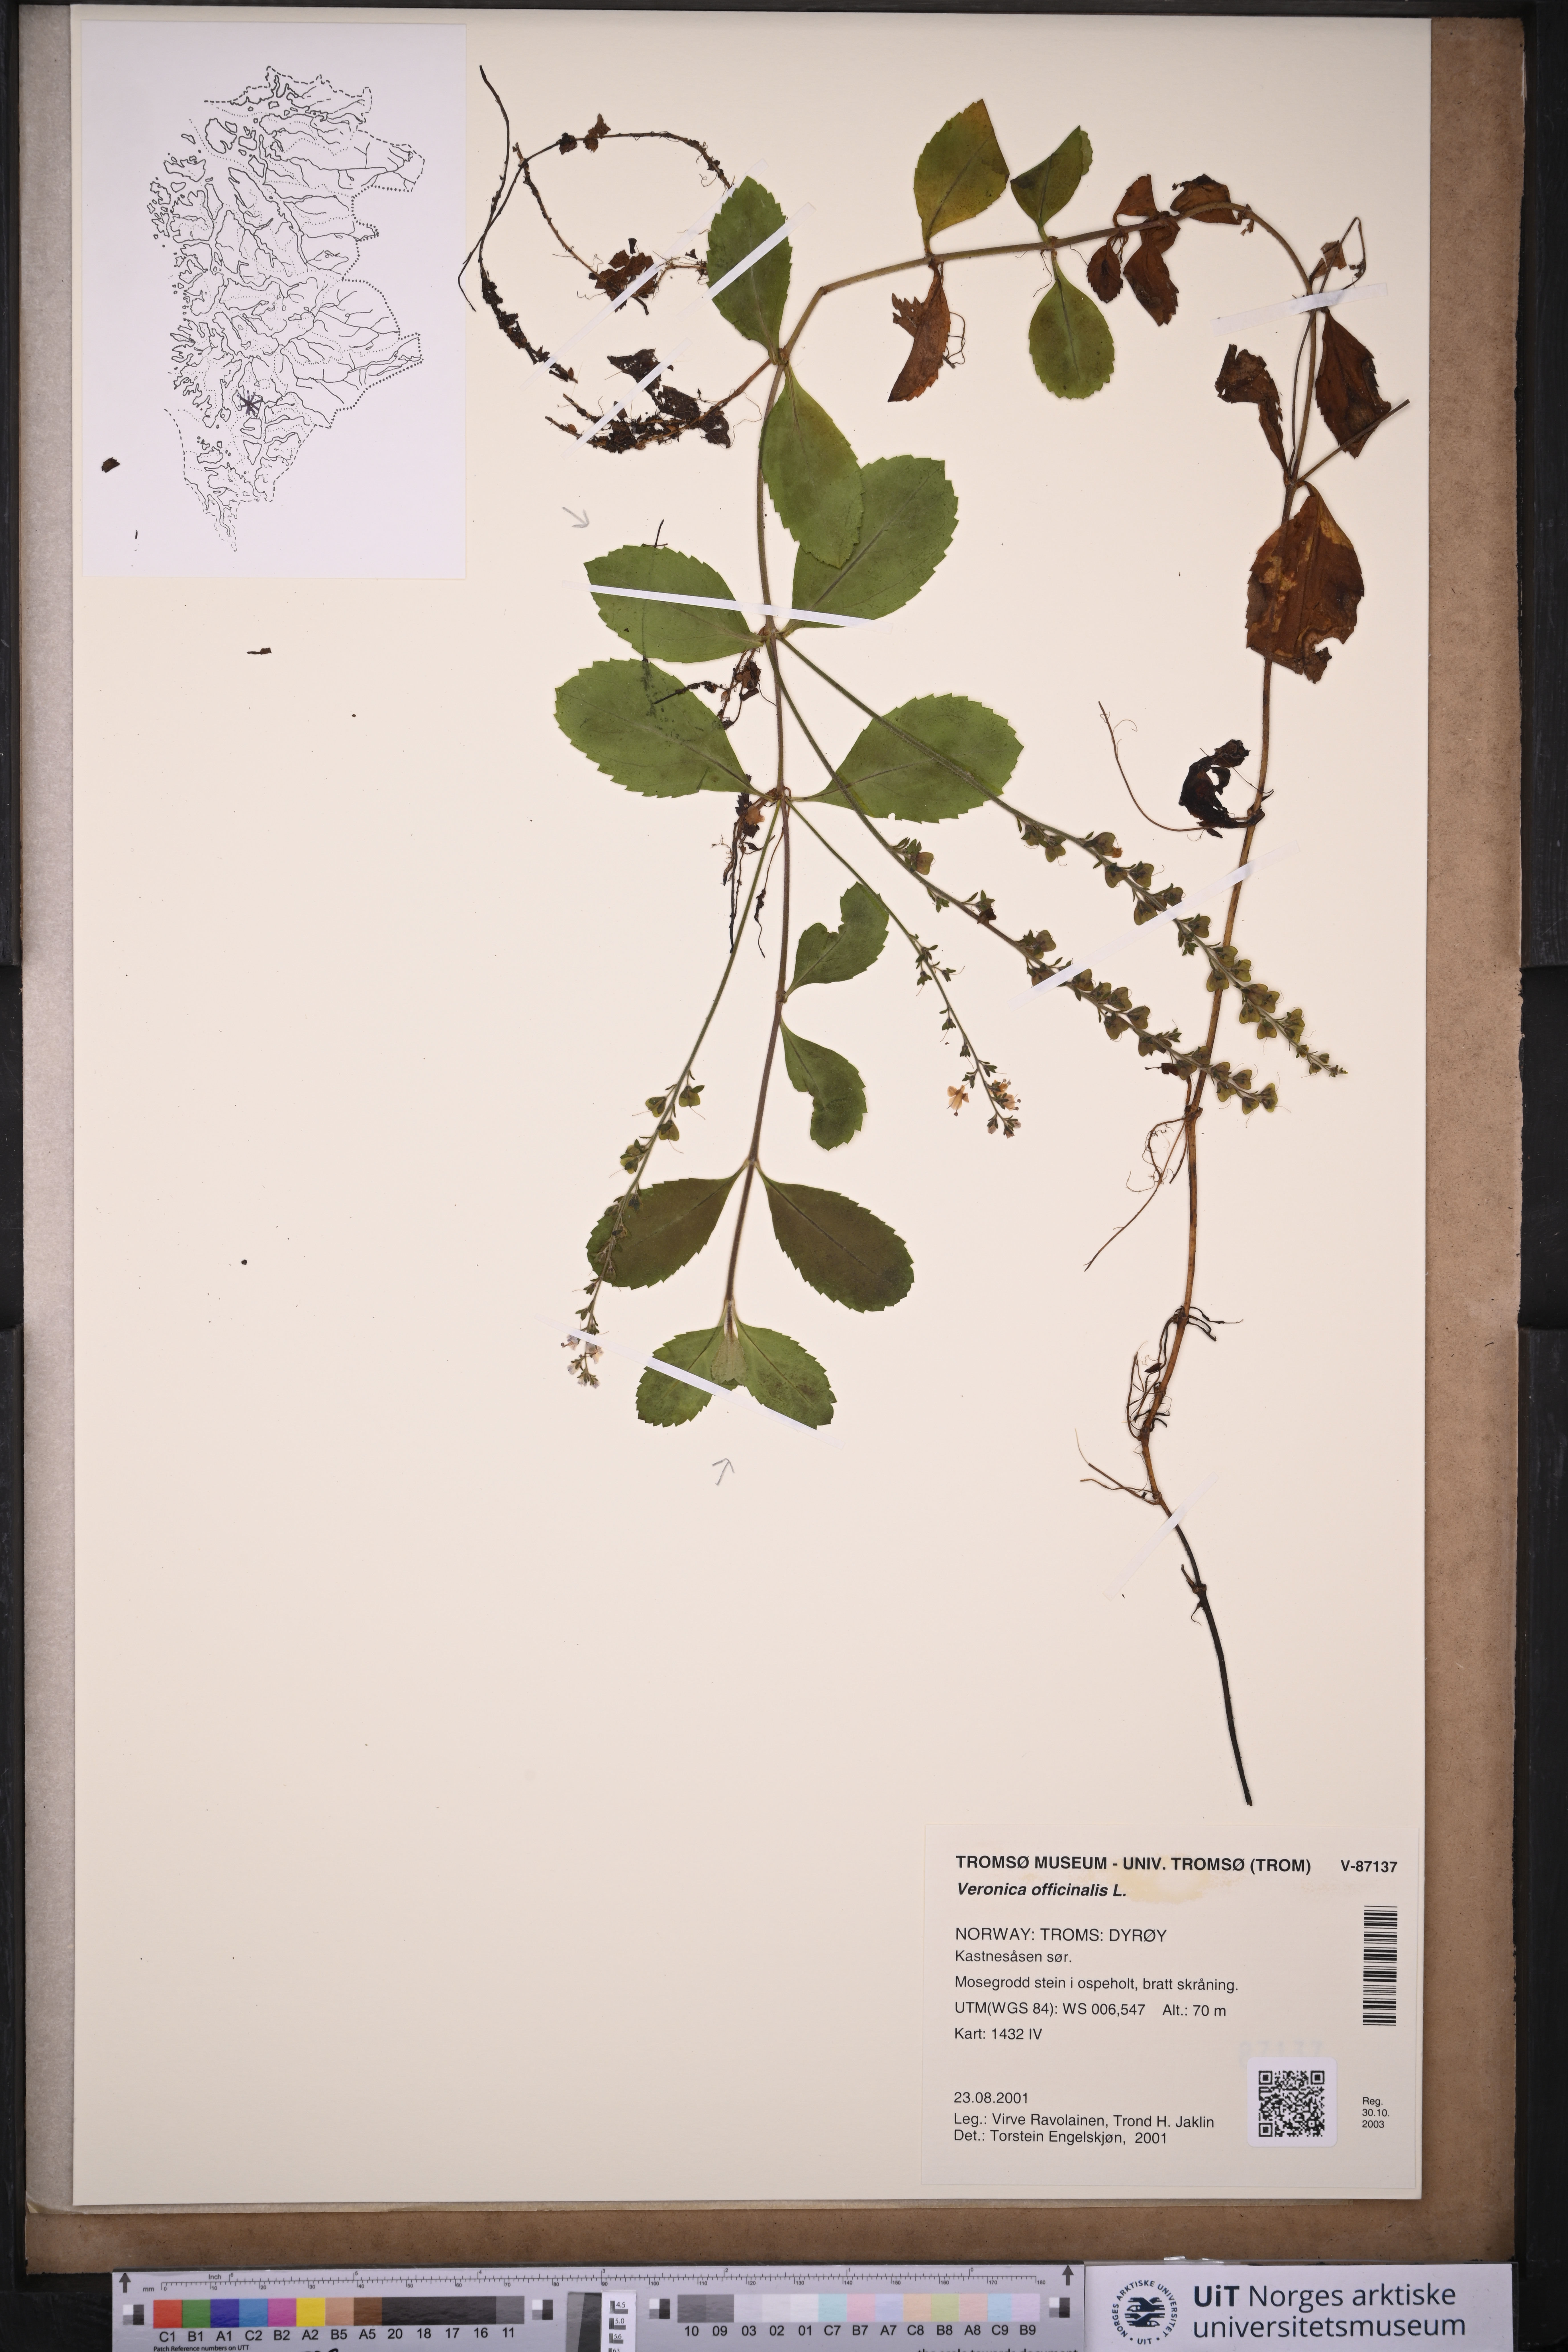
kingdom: Plantae
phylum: Tracheophyta
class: Magnoliopsida
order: Lamiales
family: Plantaginaceae
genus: Veronica
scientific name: Veronica officinalis
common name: Common speedwell
